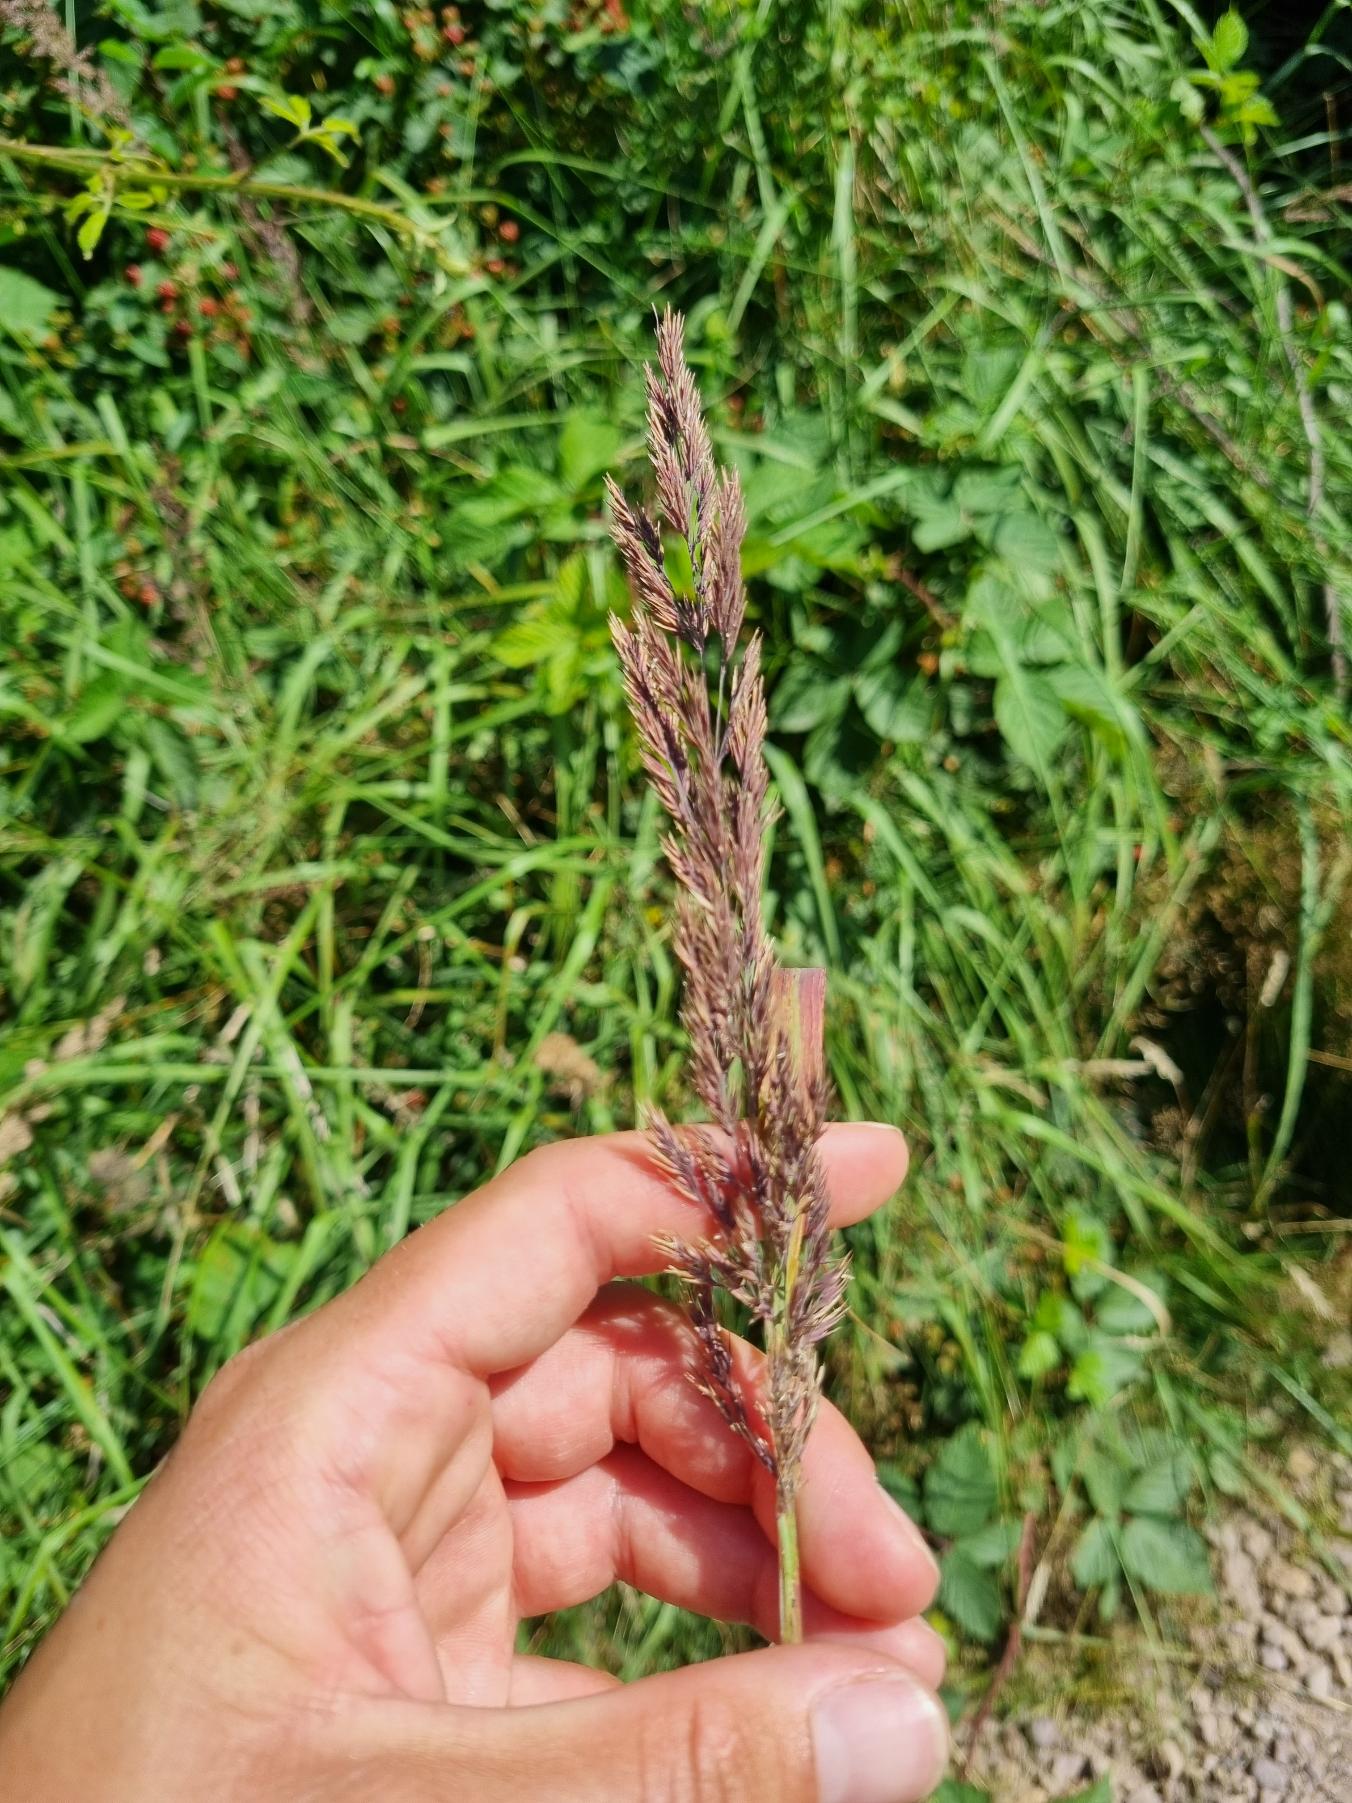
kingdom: Plantae
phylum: Tracheophyta
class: Liliopsida
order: Poales
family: Poaceae
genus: Calamagrostis
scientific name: Calamagrostis epigejos
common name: Bjerg-rørhvene
